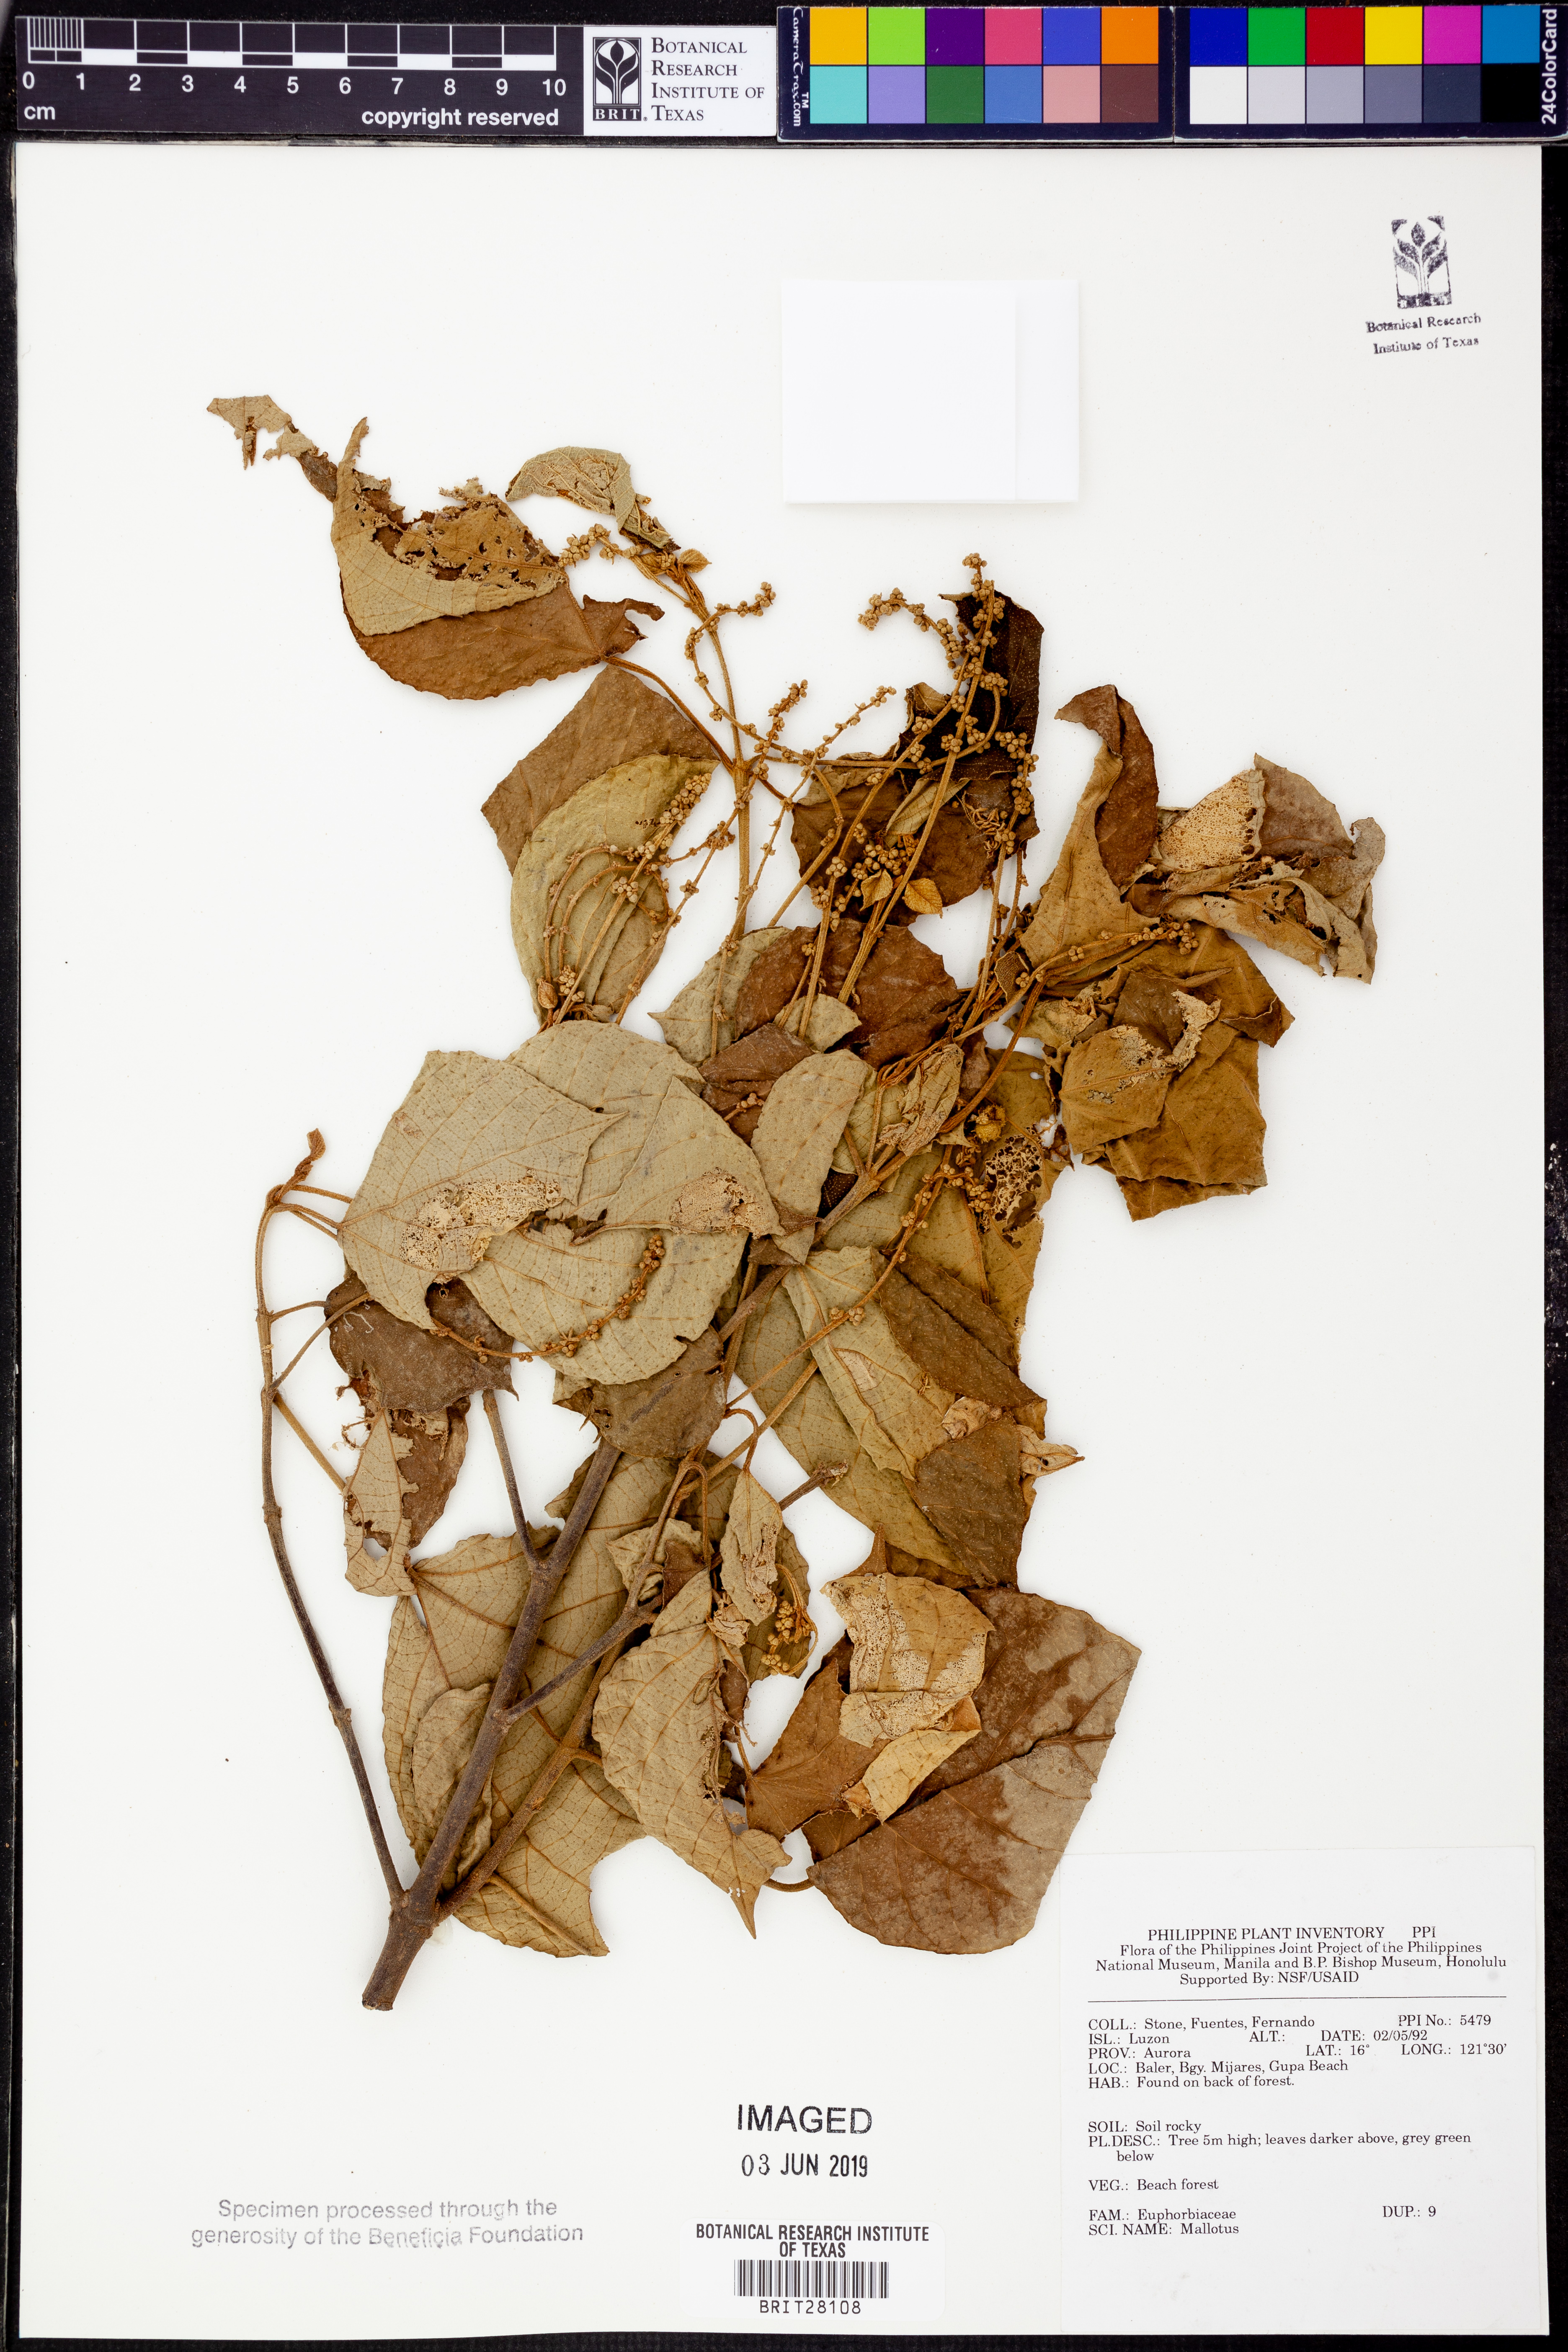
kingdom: Plantae
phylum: Tracheophyta
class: Magnoliopsida
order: Malpighiales
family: Euphorbiaceae
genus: Mallotus
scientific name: Mallotus
